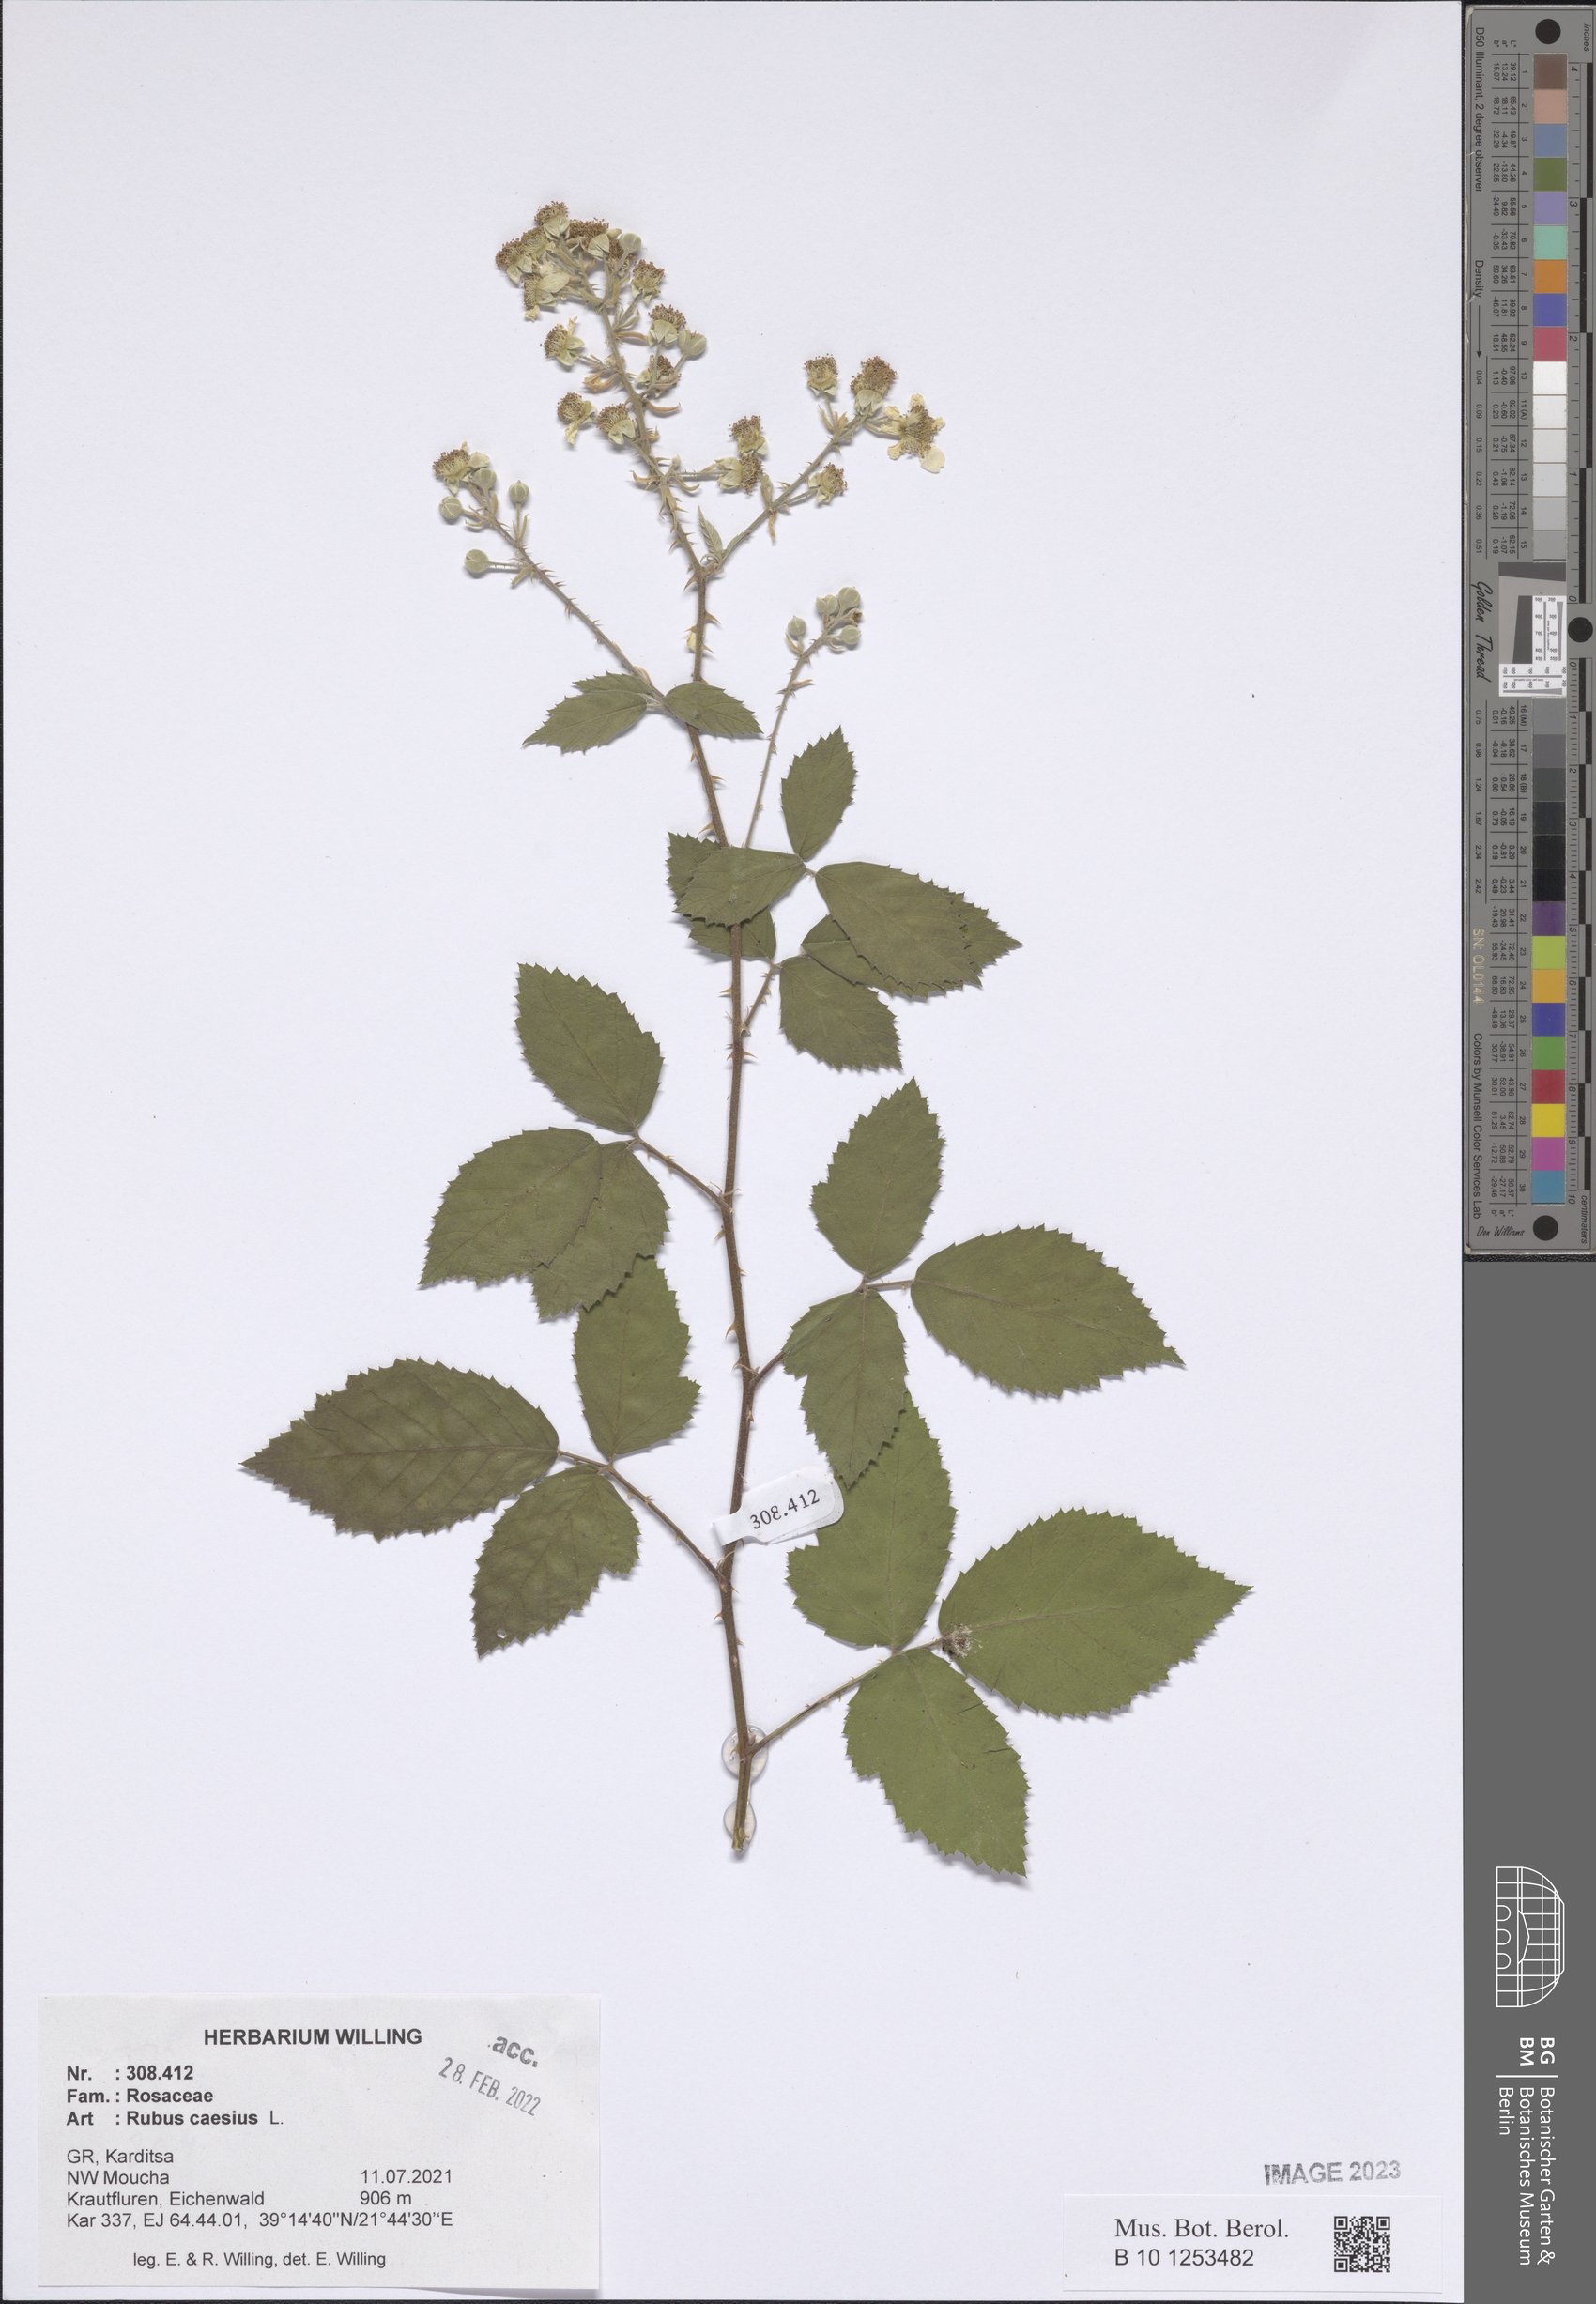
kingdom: Plantae
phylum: Tracheophyta
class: Magnoliopsida
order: Rosales
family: Rosaceae
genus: Rubus
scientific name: Rubus caesius
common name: Dewberry
